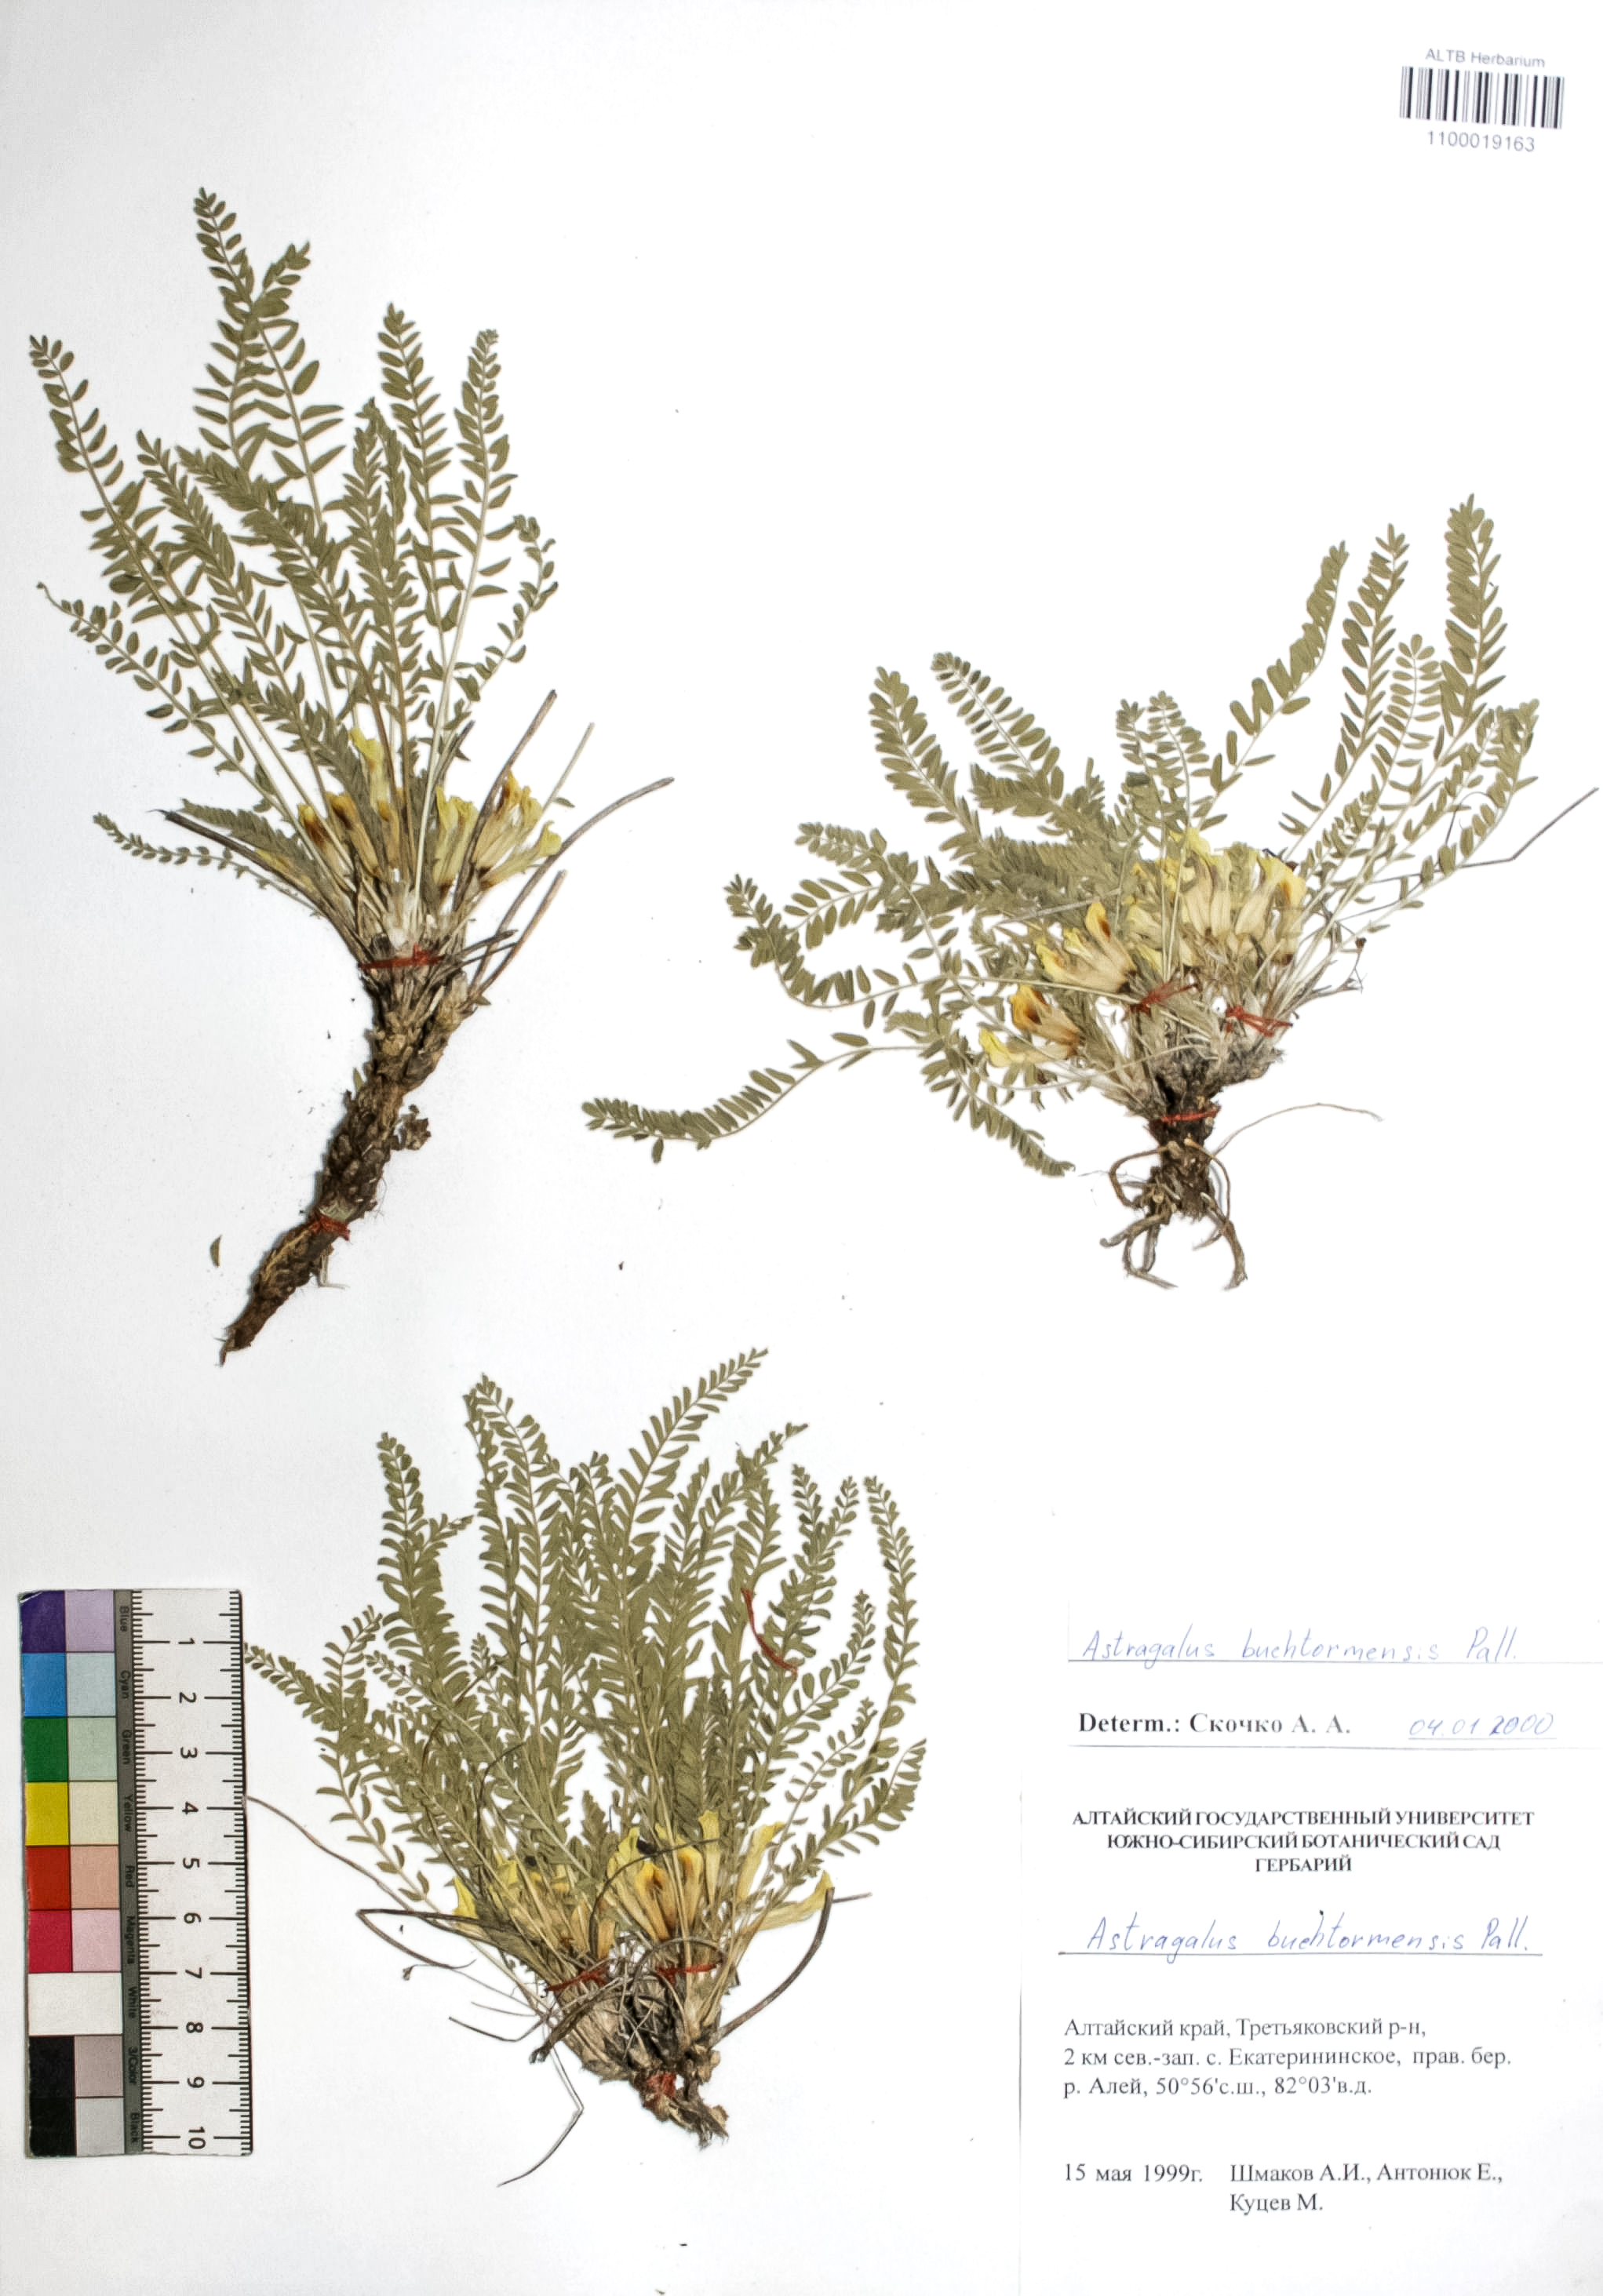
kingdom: Plantae
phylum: Tracheophyta
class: Magnoliopsida
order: Fabales
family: Fabaceae
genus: Astragalus
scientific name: Astragalus buchtormensis
